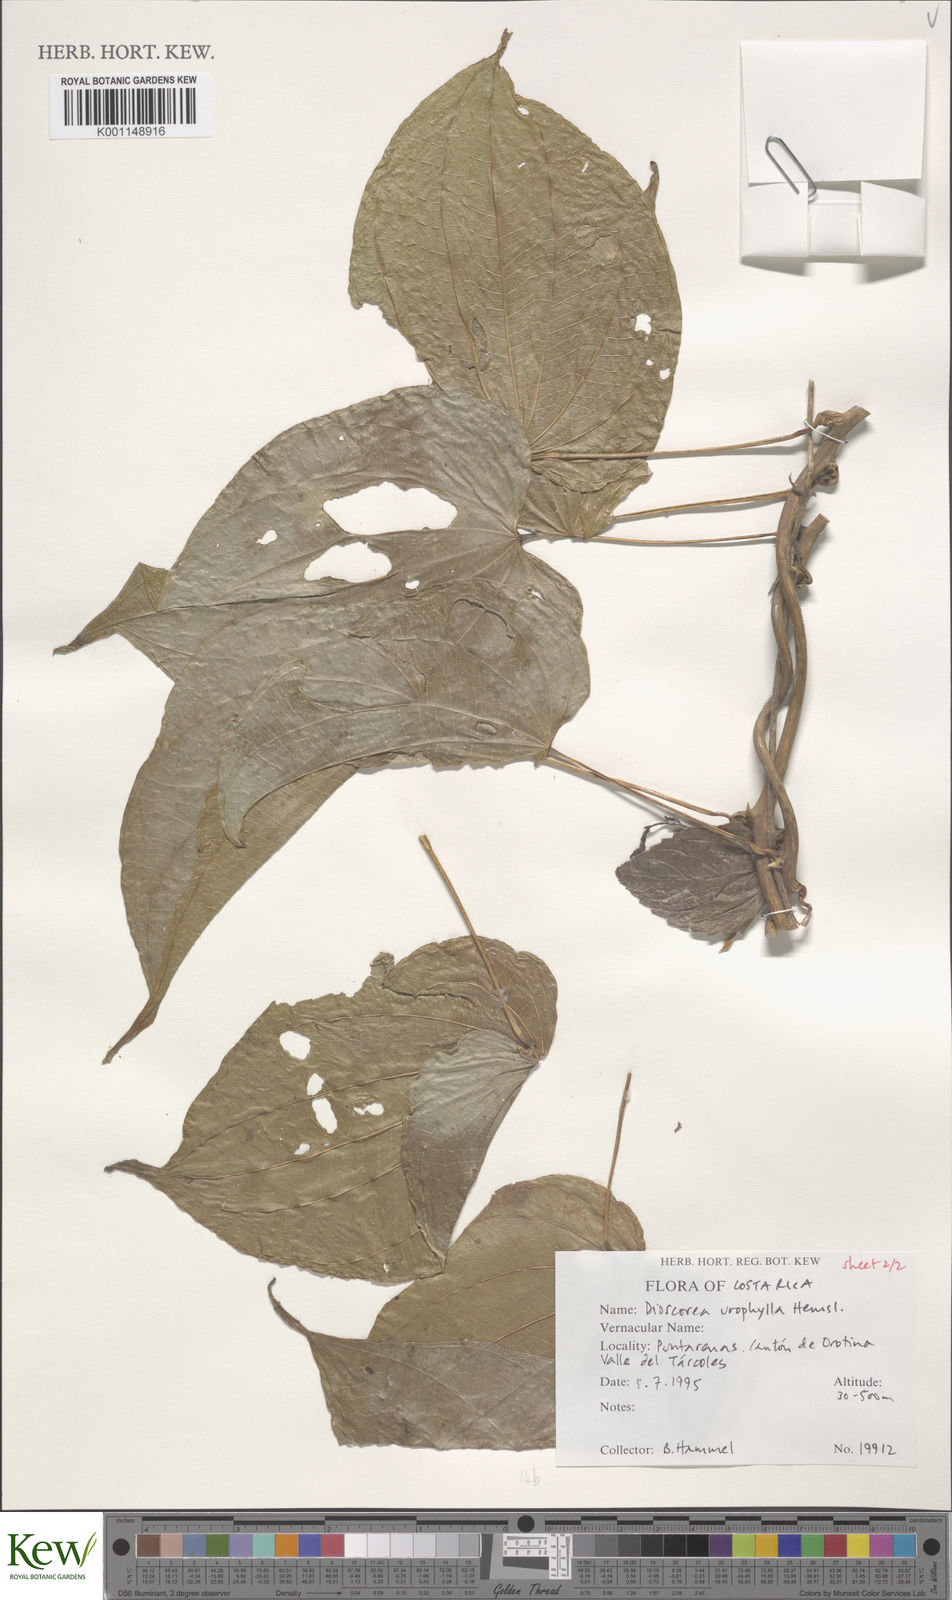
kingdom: Plantae
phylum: Tracheophyta
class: Liliopsida
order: Dioscoreales
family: Dioscoreaceae
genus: Dioscorea
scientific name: Dioscorea
